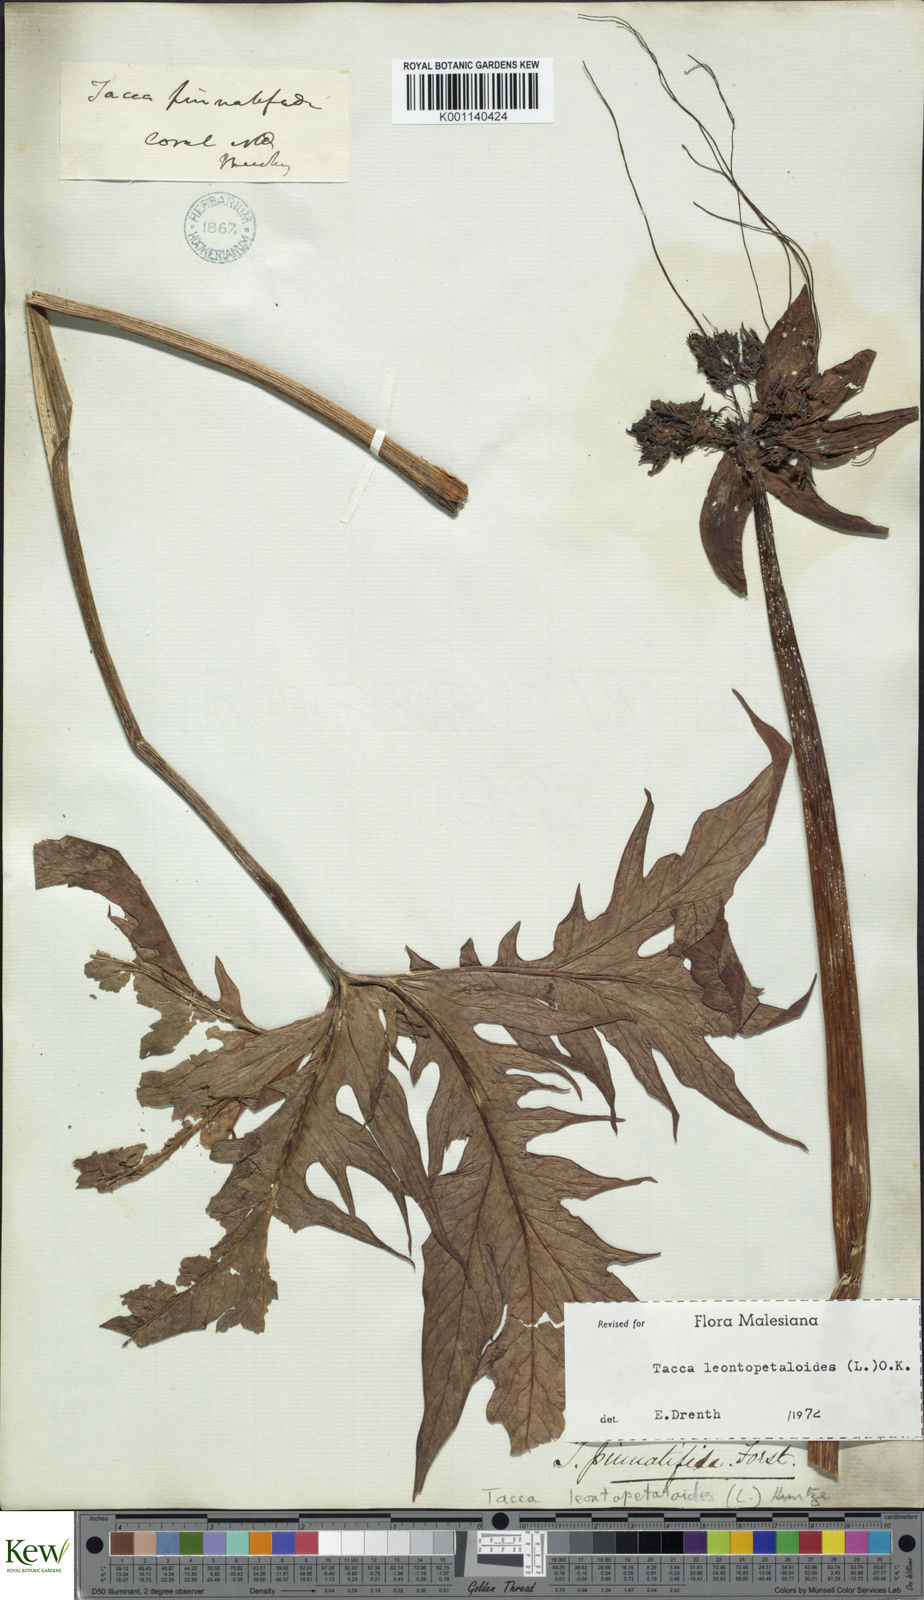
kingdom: Plantae
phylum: Tracheophyta
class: Liliopsida
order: Dioscoreales
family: Dioscoreaceae
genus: Tacca
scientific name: Tacca leontopetaloides
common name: Arrowroot
